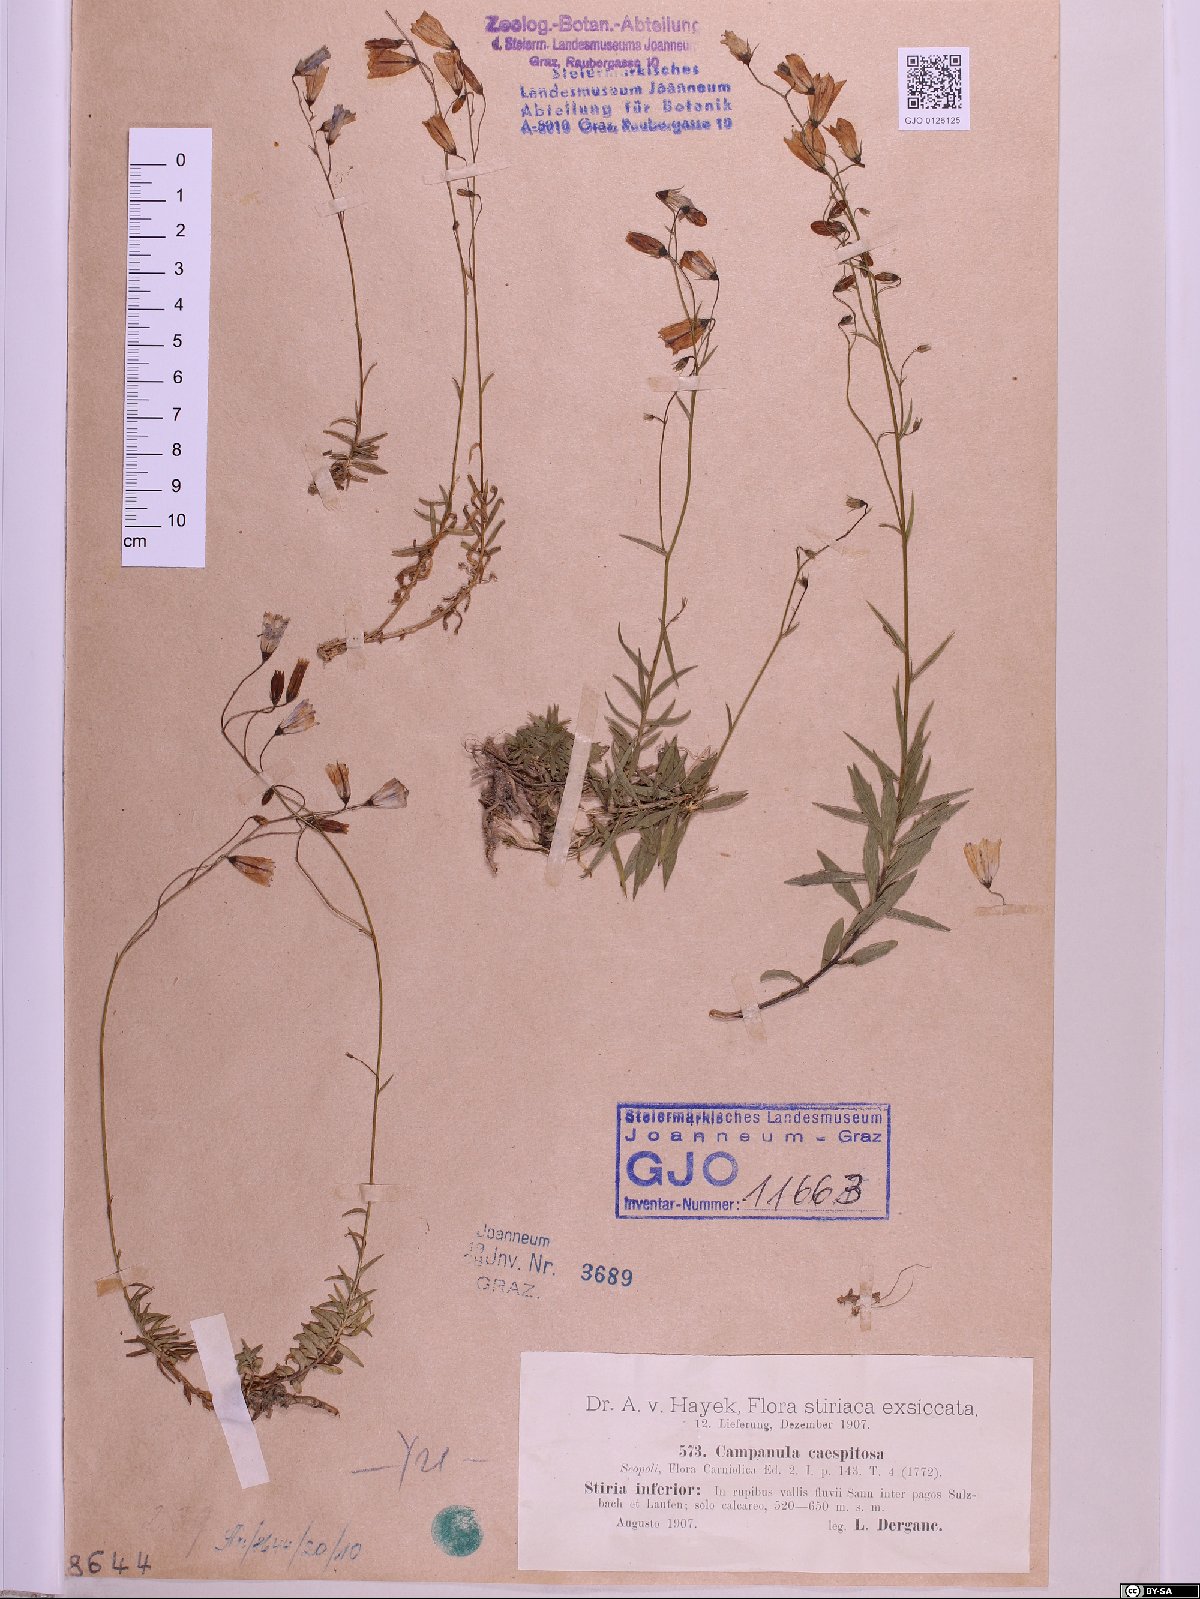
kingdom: Plantae
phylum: Tracheophyta
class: Magnoliopsida
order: Asterales
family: Campanulaceae
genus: Campanula
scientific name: Campanula caespitosa
